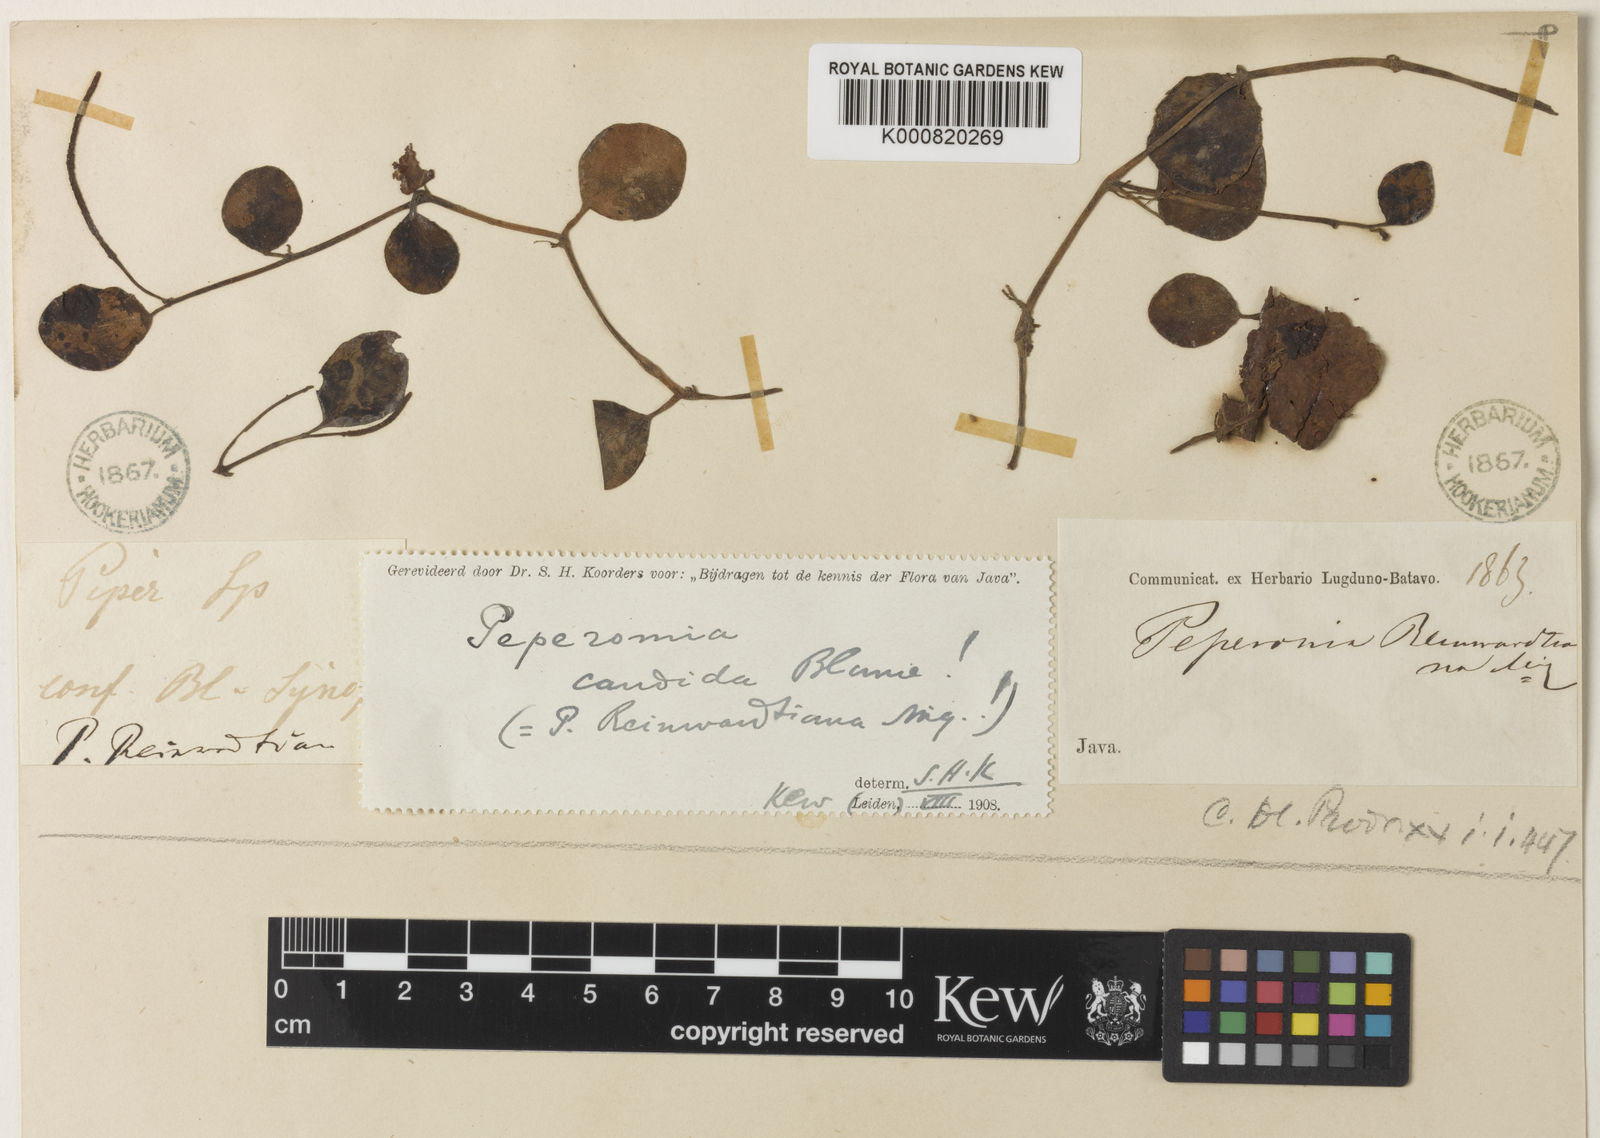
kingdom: Plantae
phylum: Tracheophyta
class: Magnoliopsida
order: Piperales
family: Piperaceae
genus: Peperomia
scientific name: Peperomia candida
